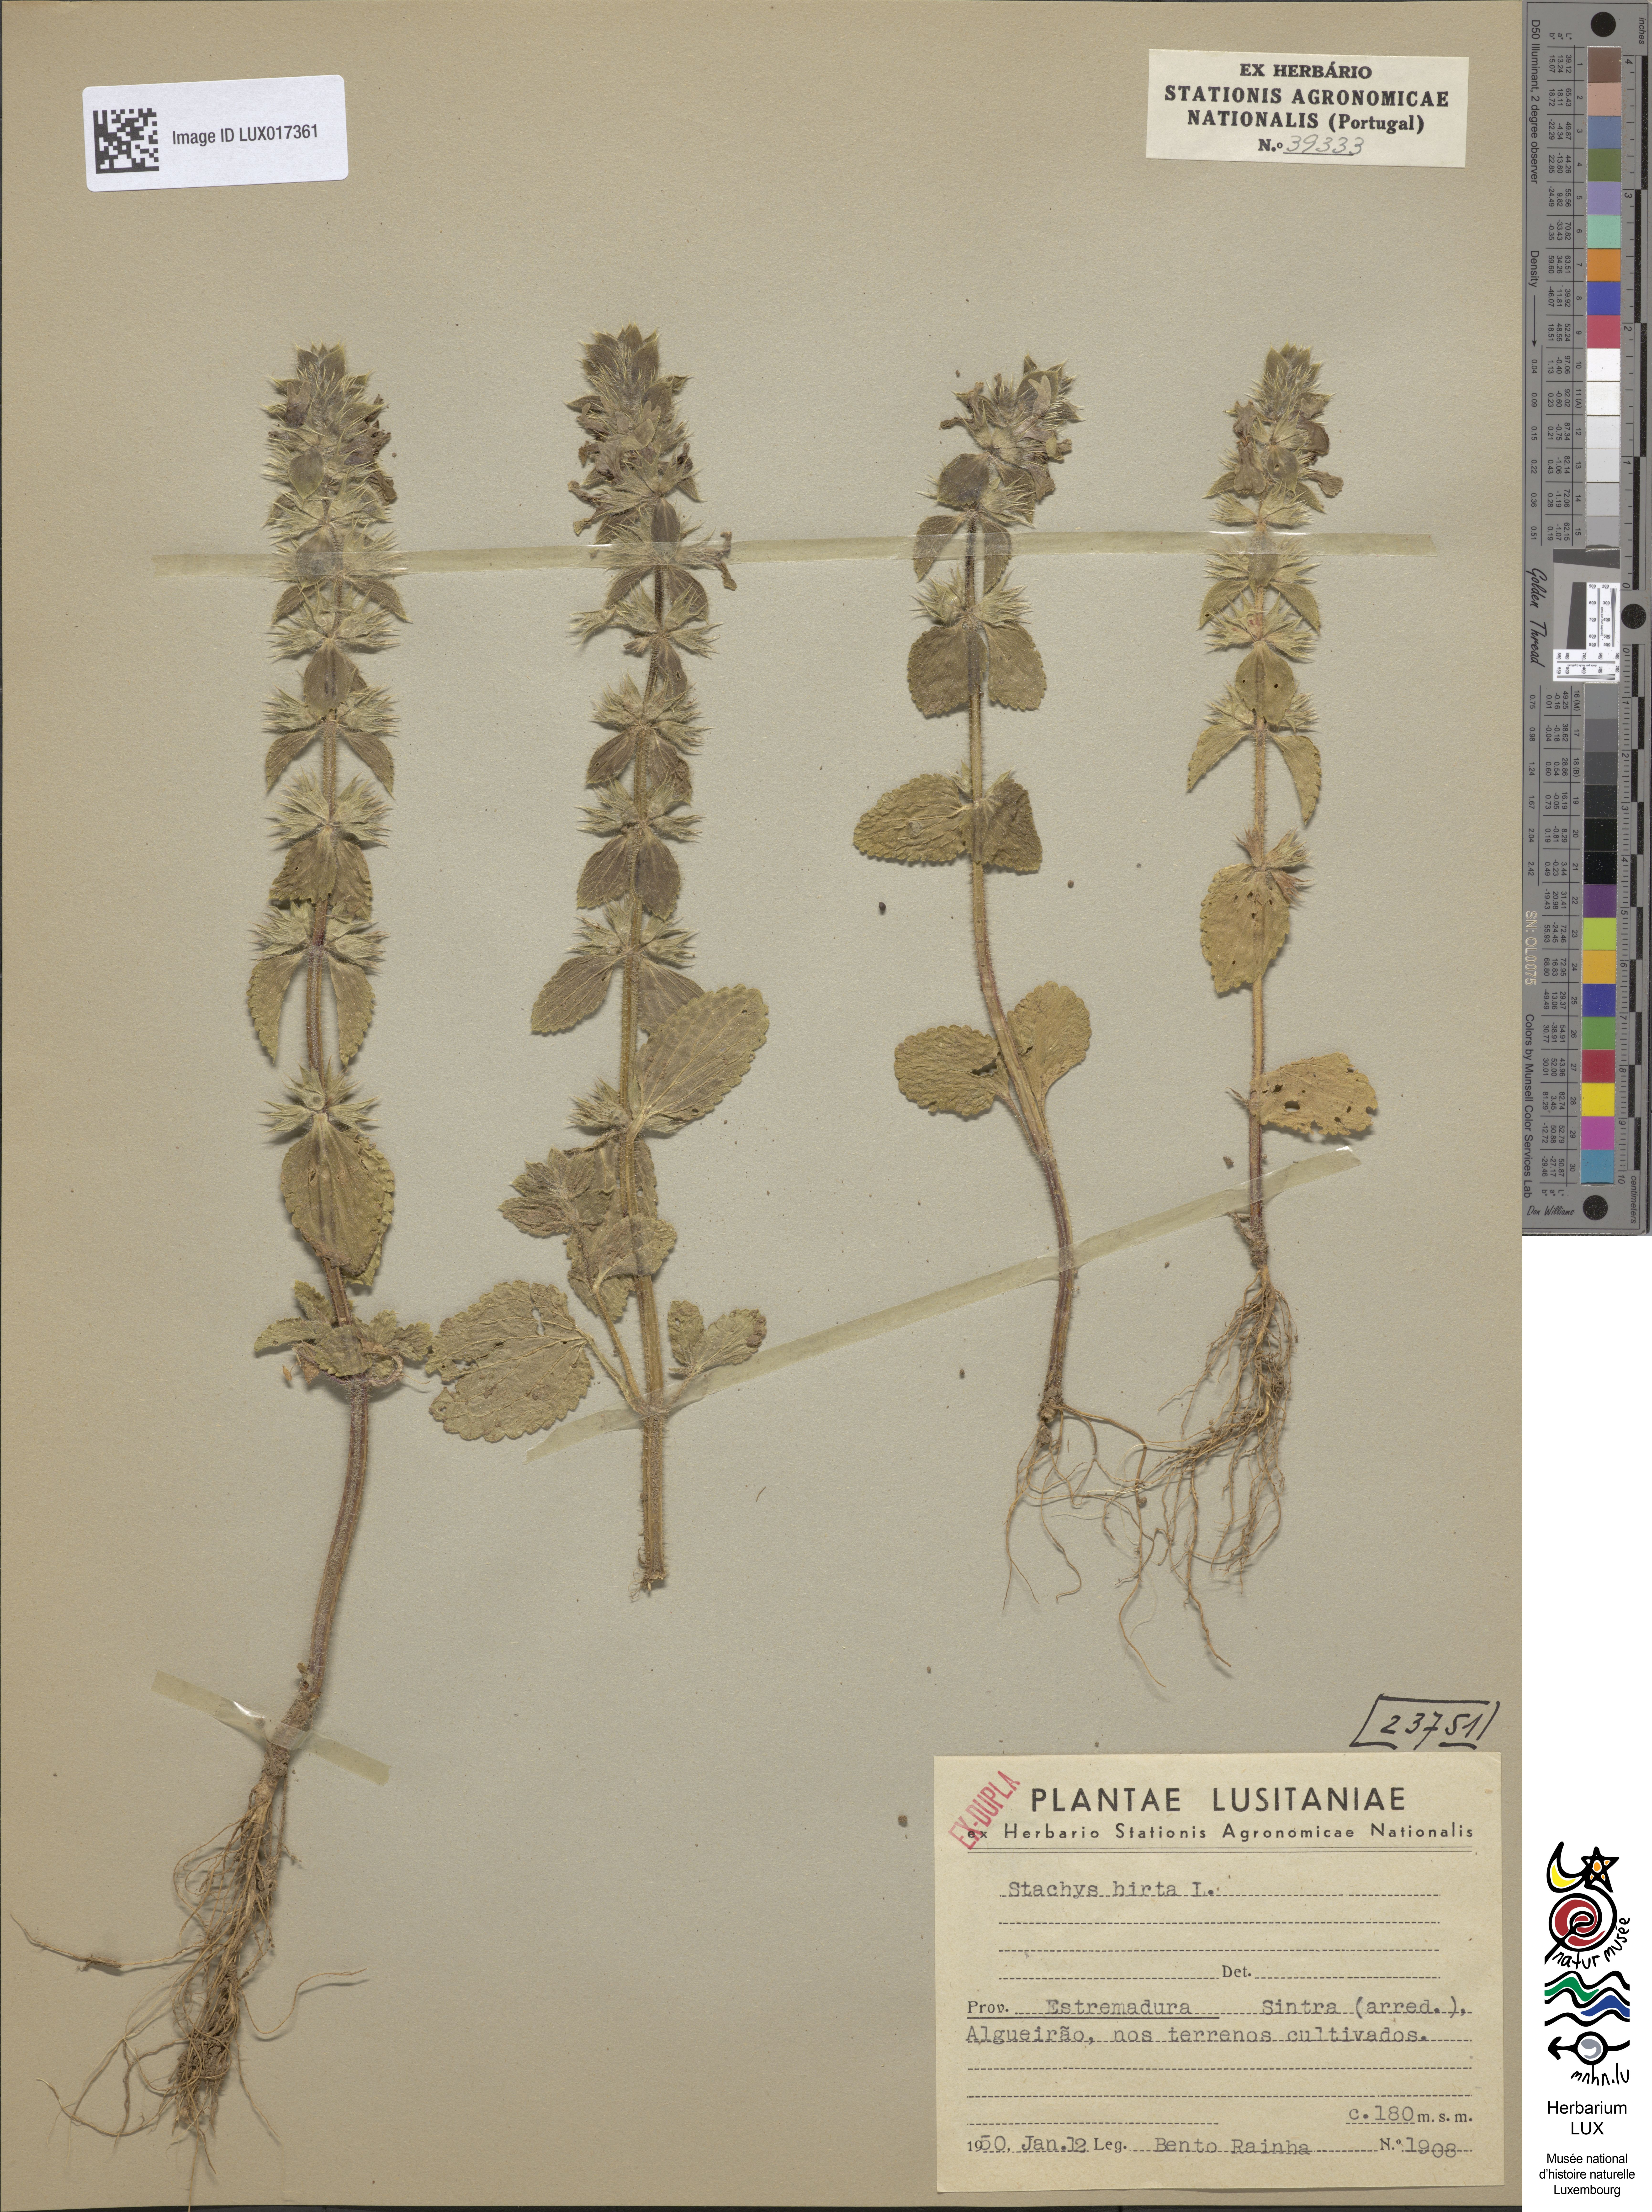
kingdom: Plantae
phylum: Tracheophyta
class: Magnoliopsida
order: Lamiales
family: Lamiaceae
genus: Stachys
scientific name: Stachys ocymastrum
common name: Italian hedgenettle
